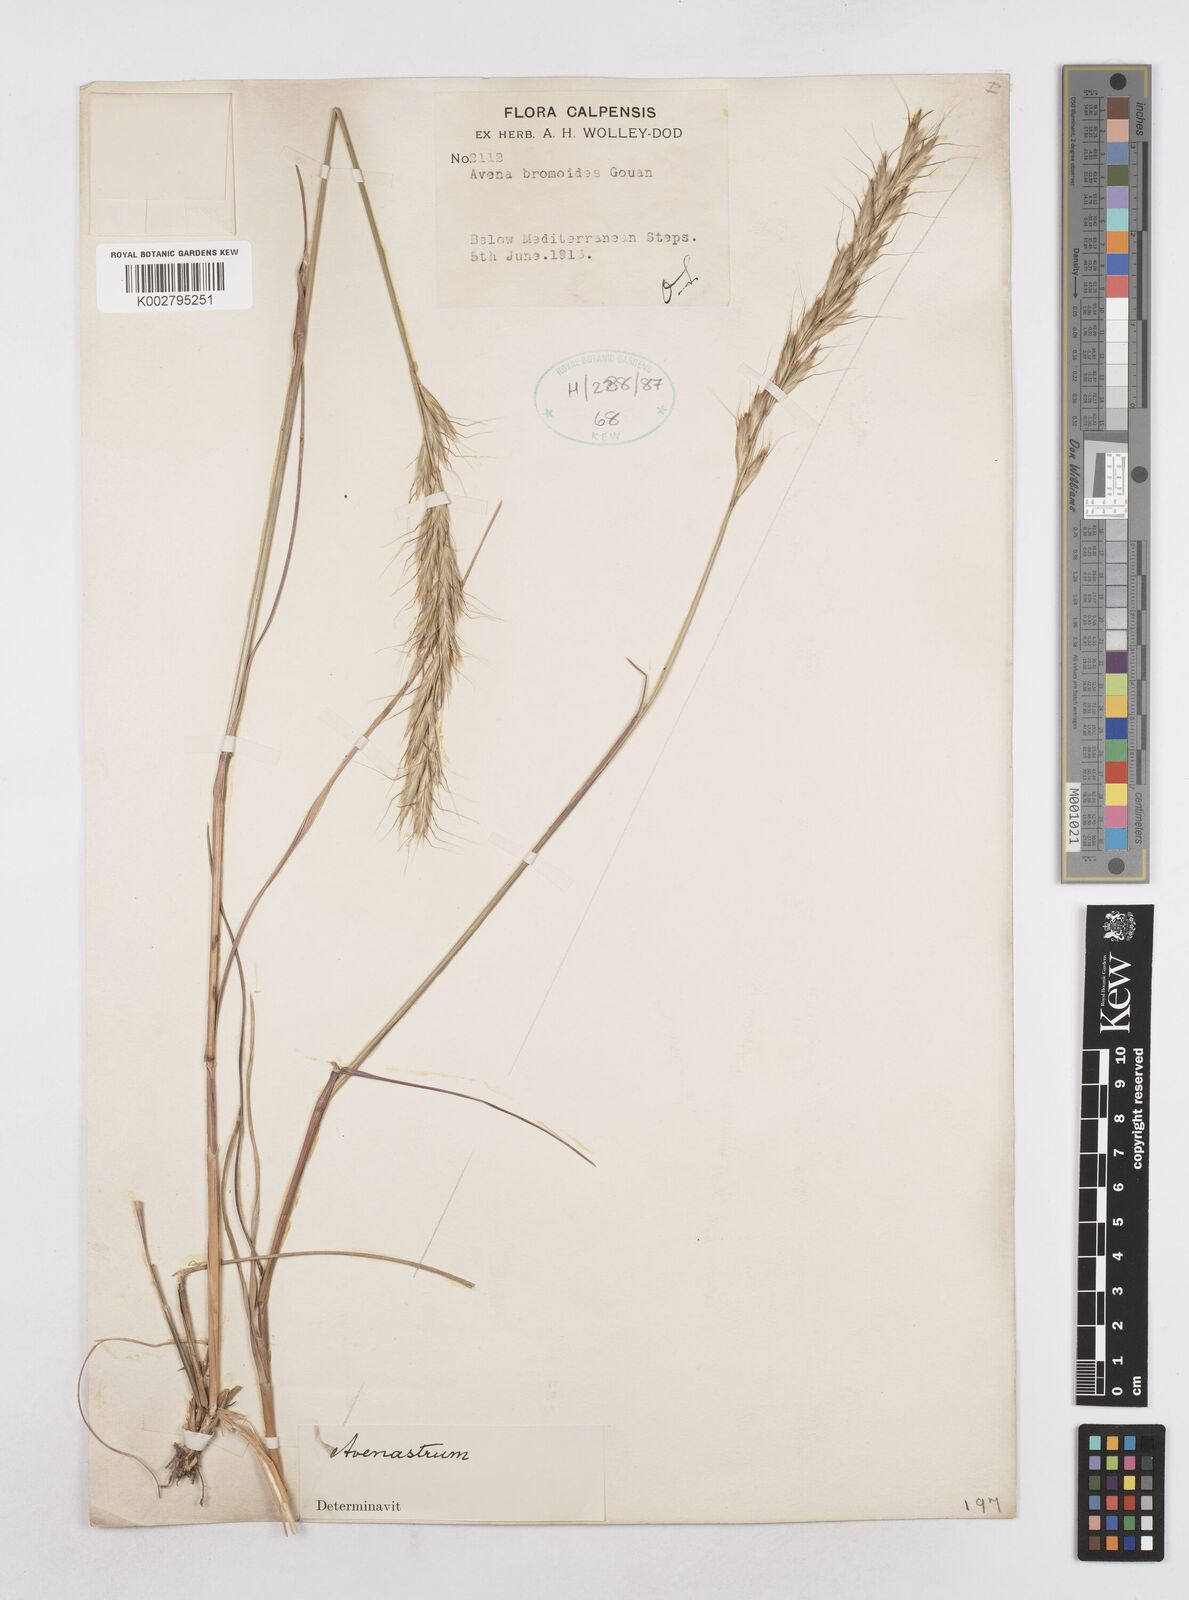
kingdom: Plantae
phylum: Tracheophyta
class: Liliopsida
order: Poales
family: Poaceae
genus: Helictochloa
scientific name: Helictochloa bromoides
